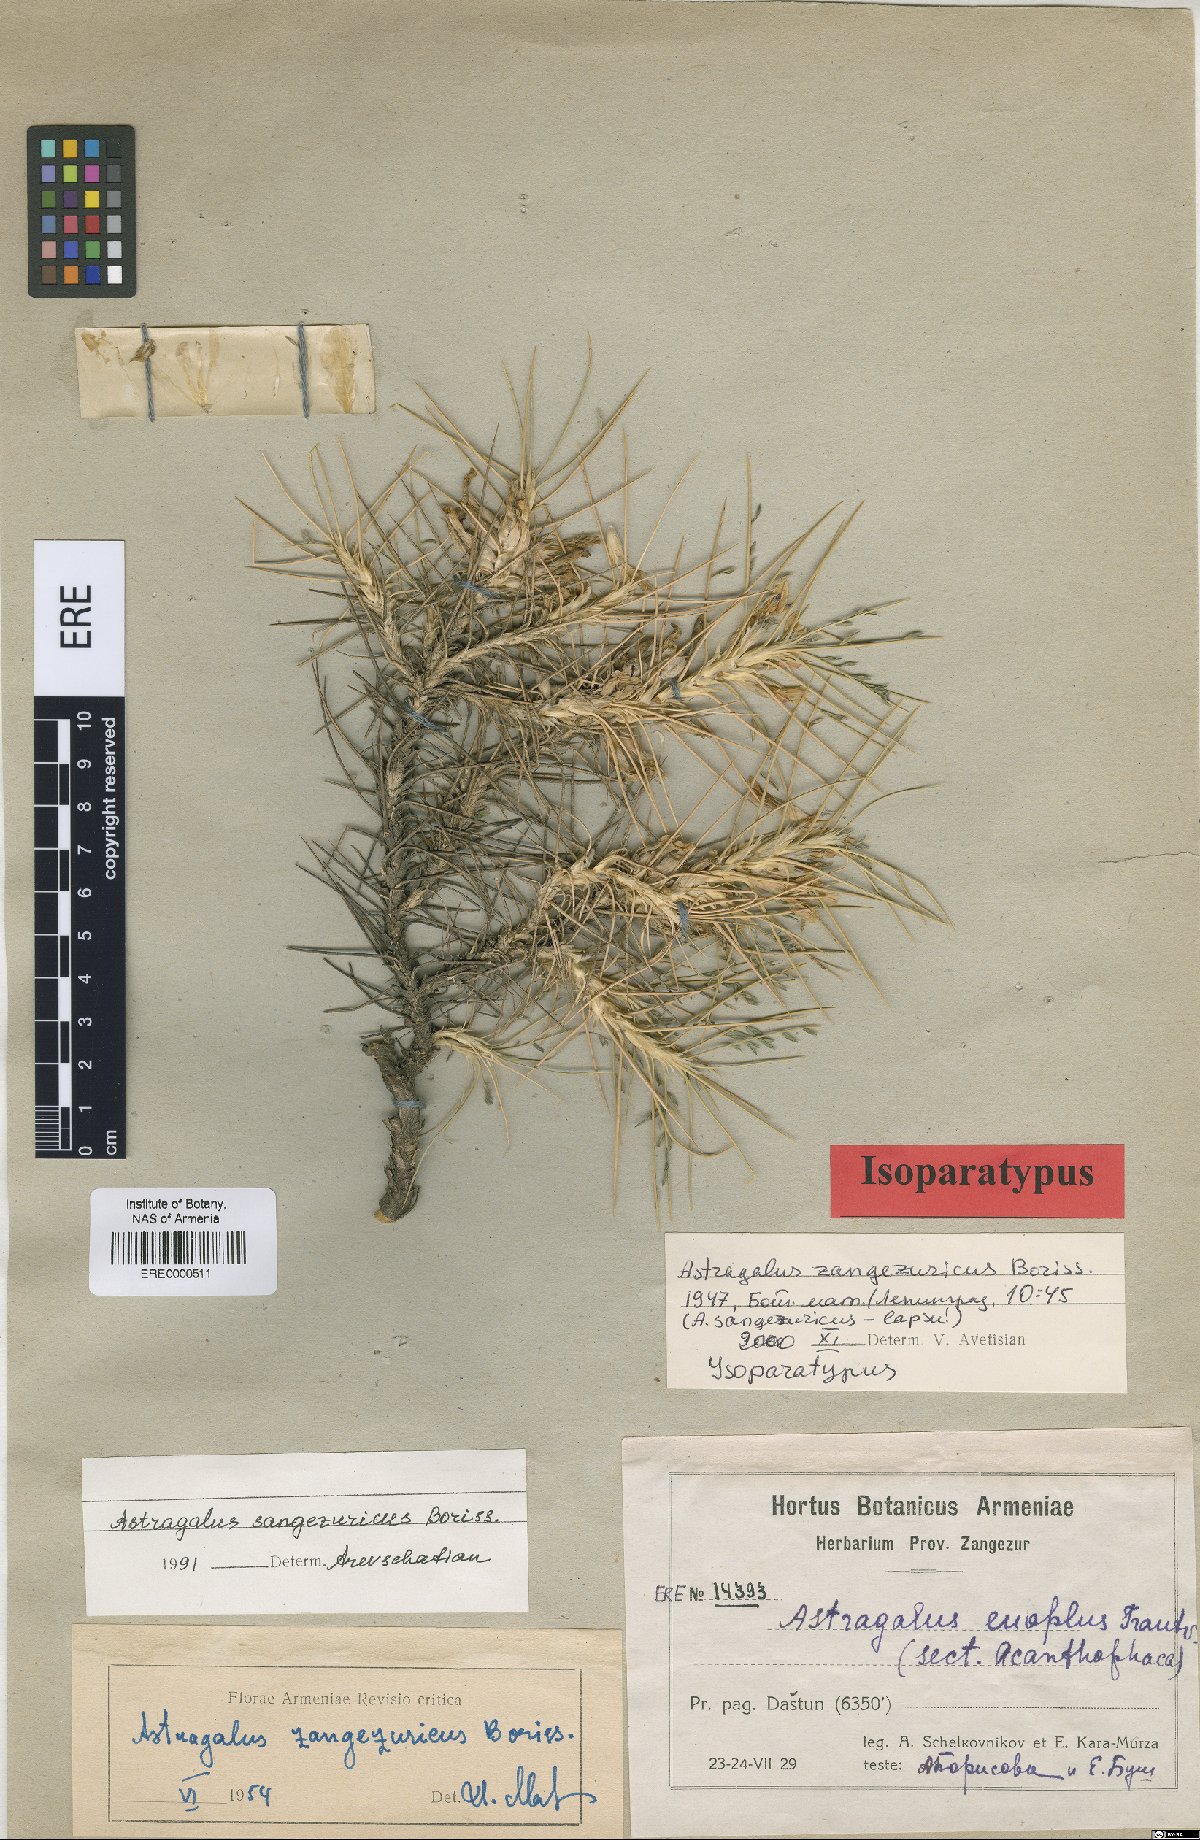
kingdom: Plantae
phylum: Tracheophyta
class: Magnoliopsida
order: Fabales
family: Fabaceae
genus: Astragalus
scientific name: Astragalus sangesuricus
